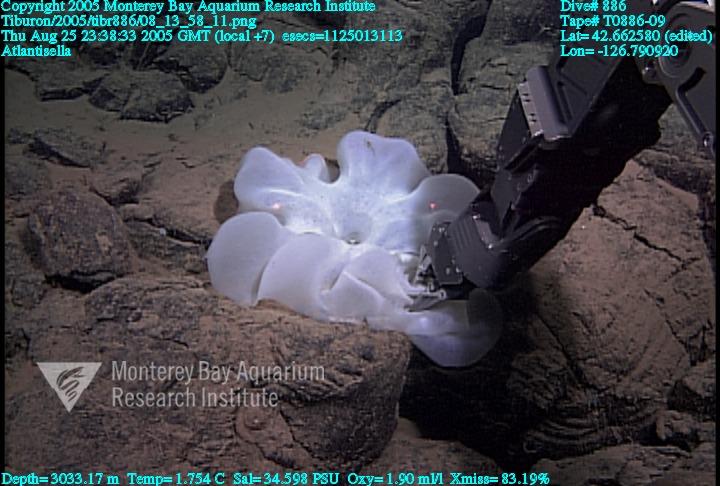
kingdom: Animalia
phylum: Porifera
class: Hexactinellida
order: Lyssacinosida
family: Euplectellidae
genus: Atlantisella
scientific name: Atlantisella
